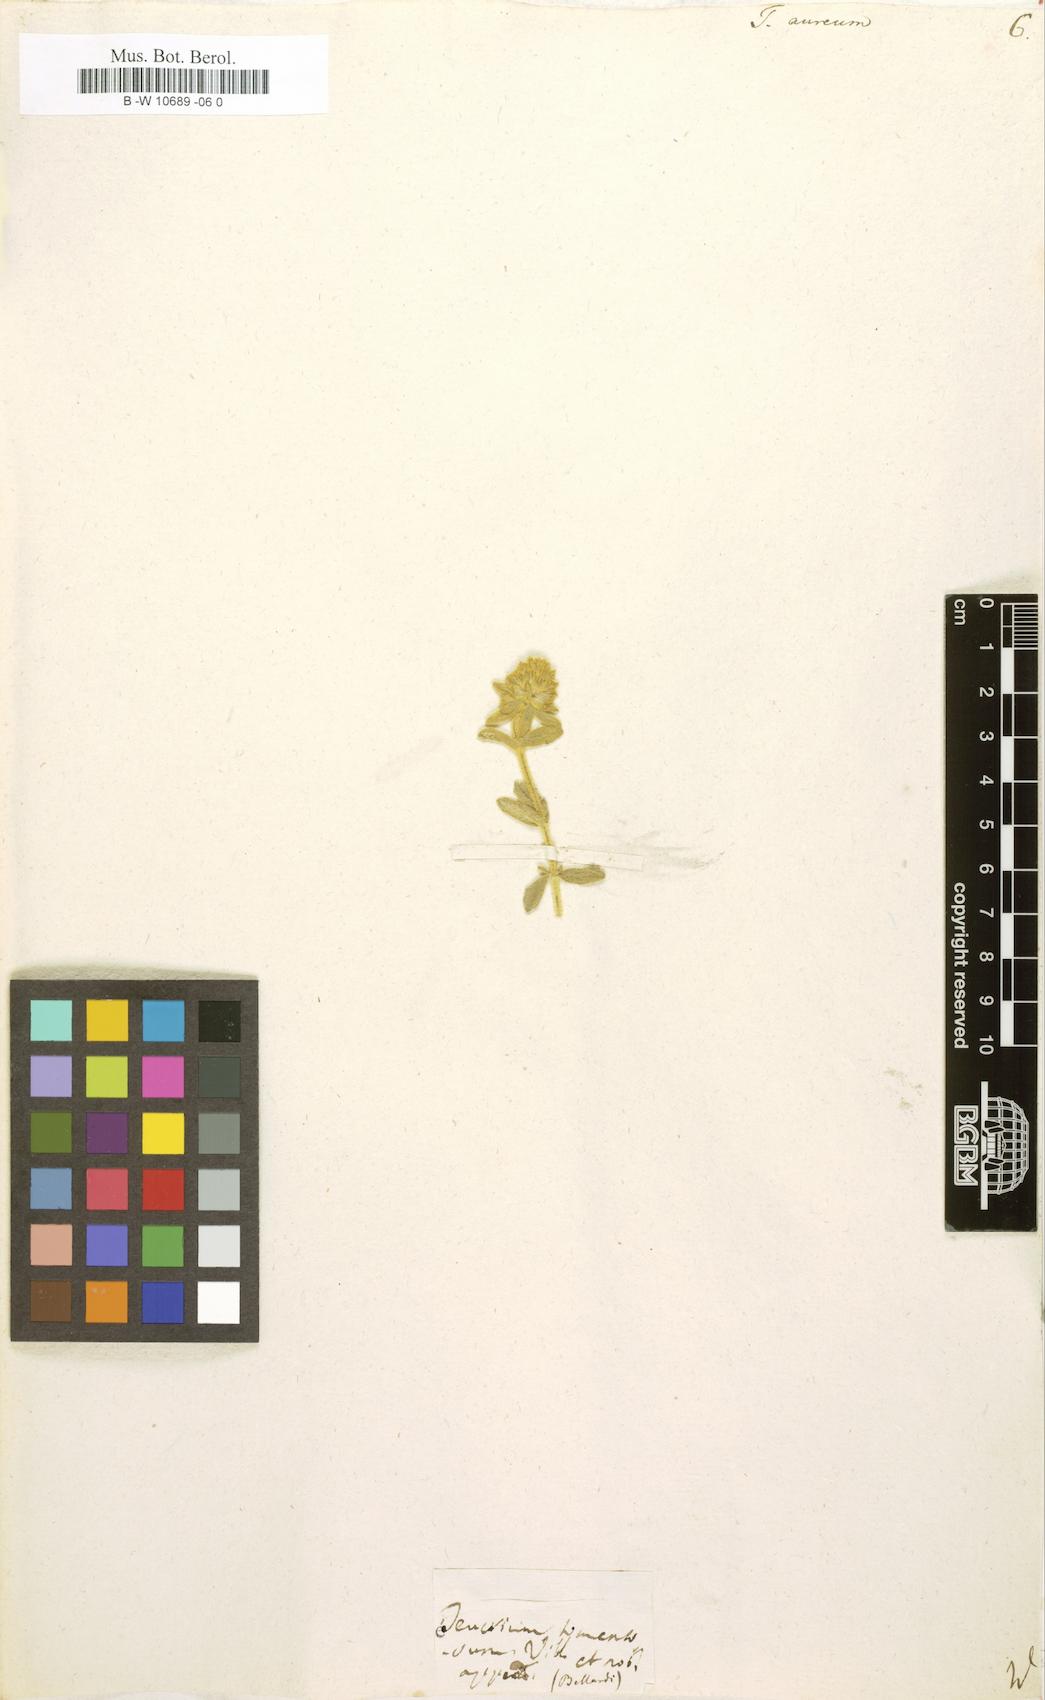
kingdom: Plantae
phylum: Tracheophyta
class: Magnoliopsida
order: Lamiales
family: Lamiaceae
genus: Teucrium
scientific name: Teucrium aureum
